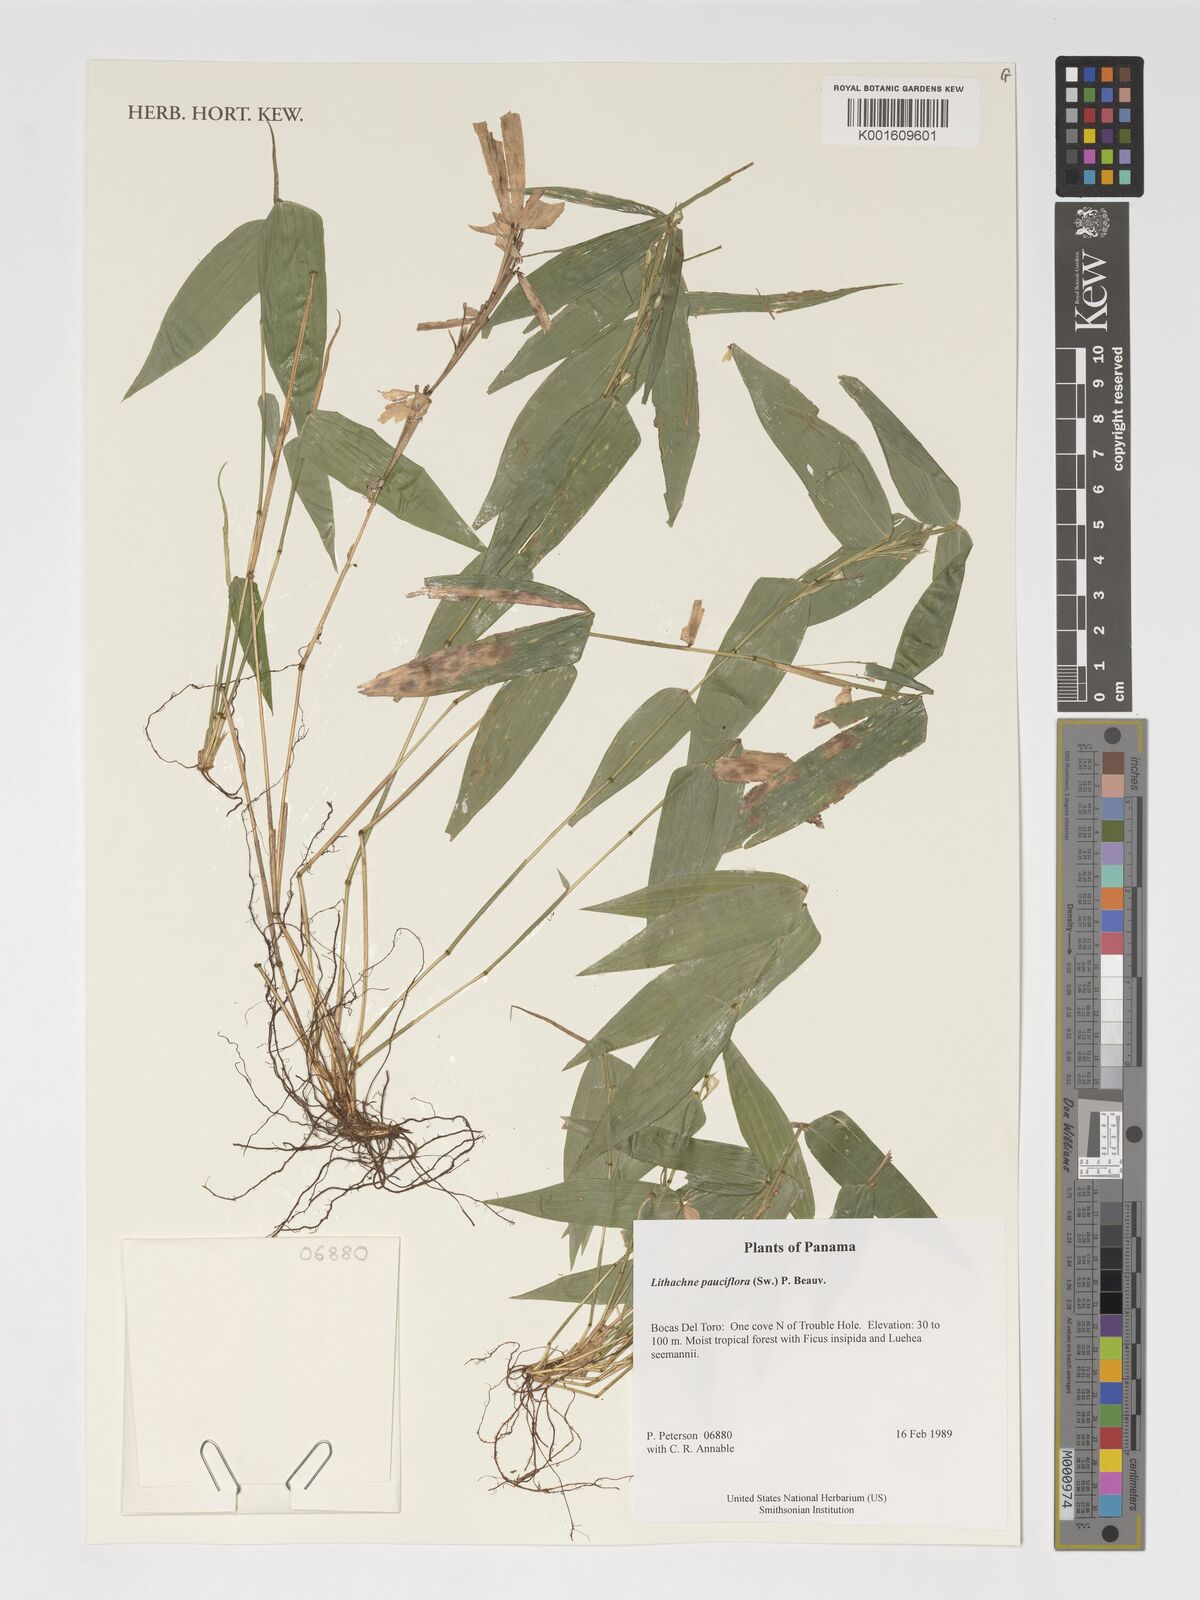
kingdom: Plantae
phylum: Tracheophyta
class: Liliopsida
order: Poales
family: Poaceae
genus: Lithachne
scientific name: Lithachne pauciflora
